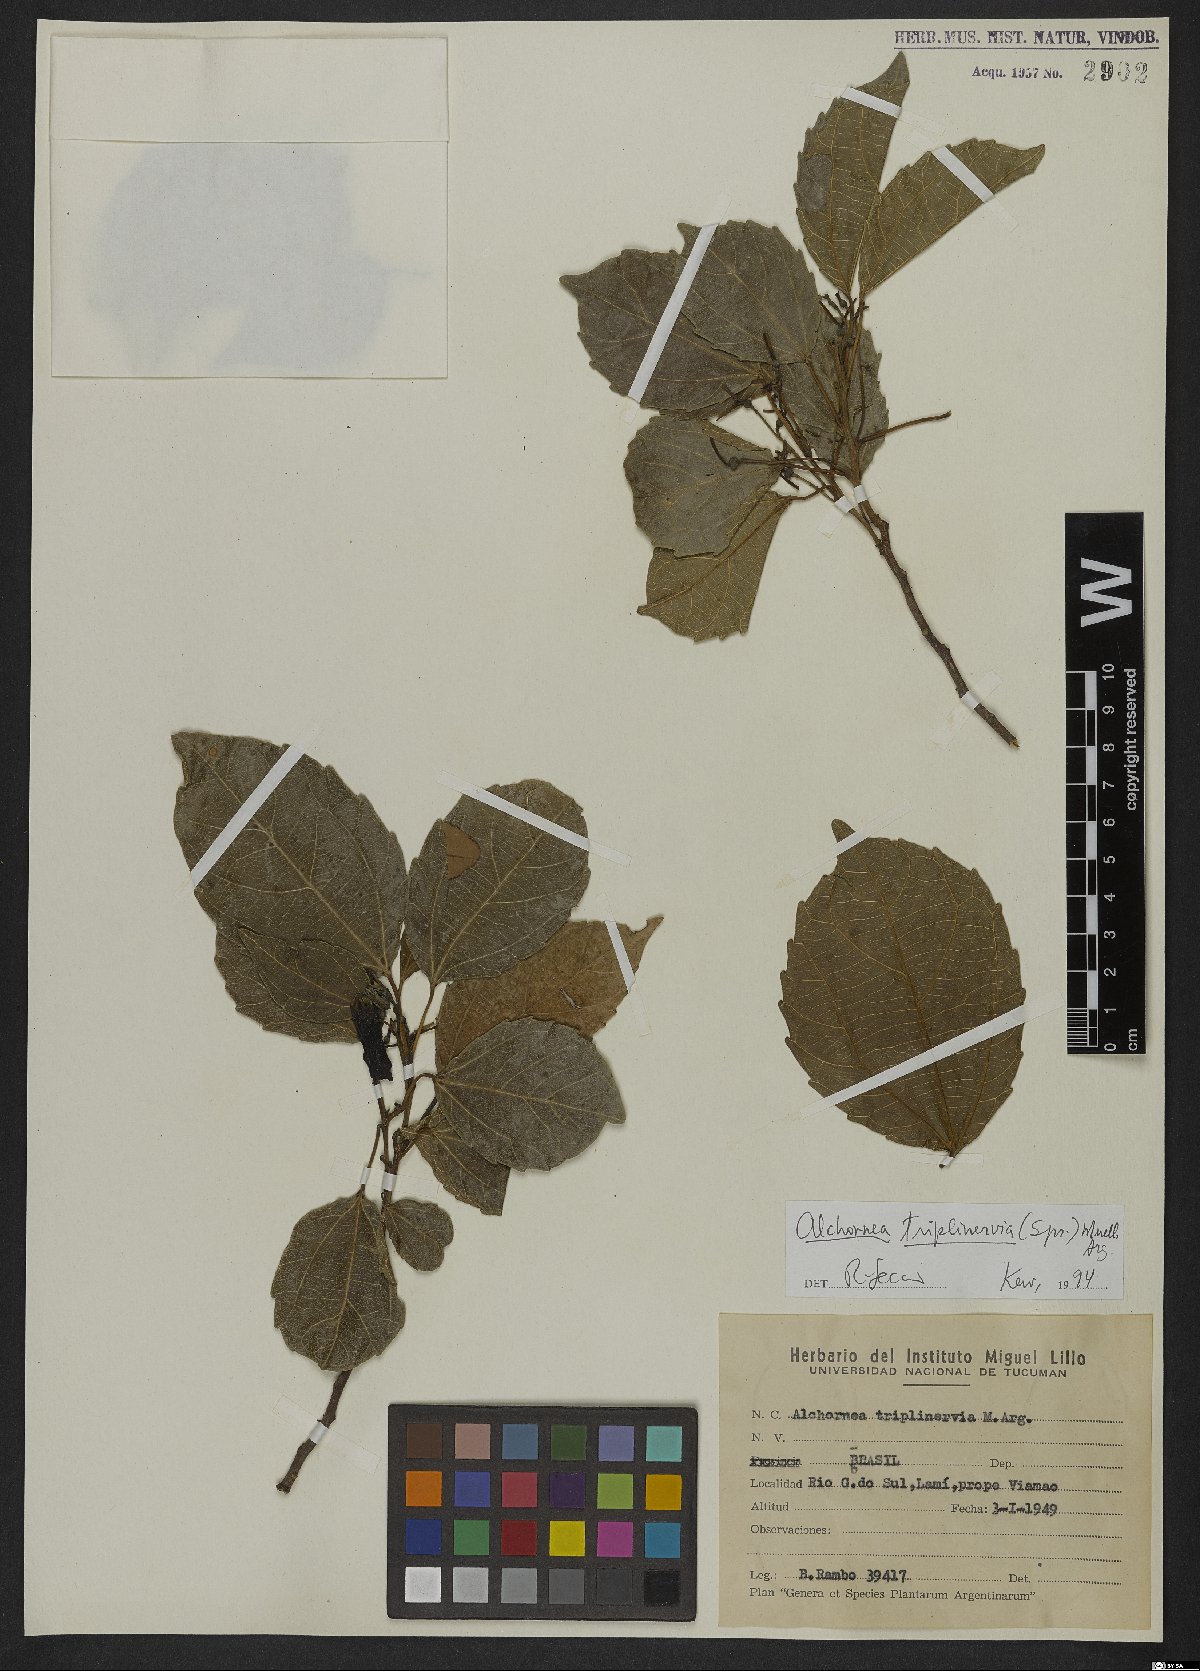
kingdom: Plantae
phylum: Tracheophyta
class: Magnoliopsida
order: Malpighiales
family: Euphorbiaceae
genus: Alchornea
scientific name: Alchornea triplinervia
